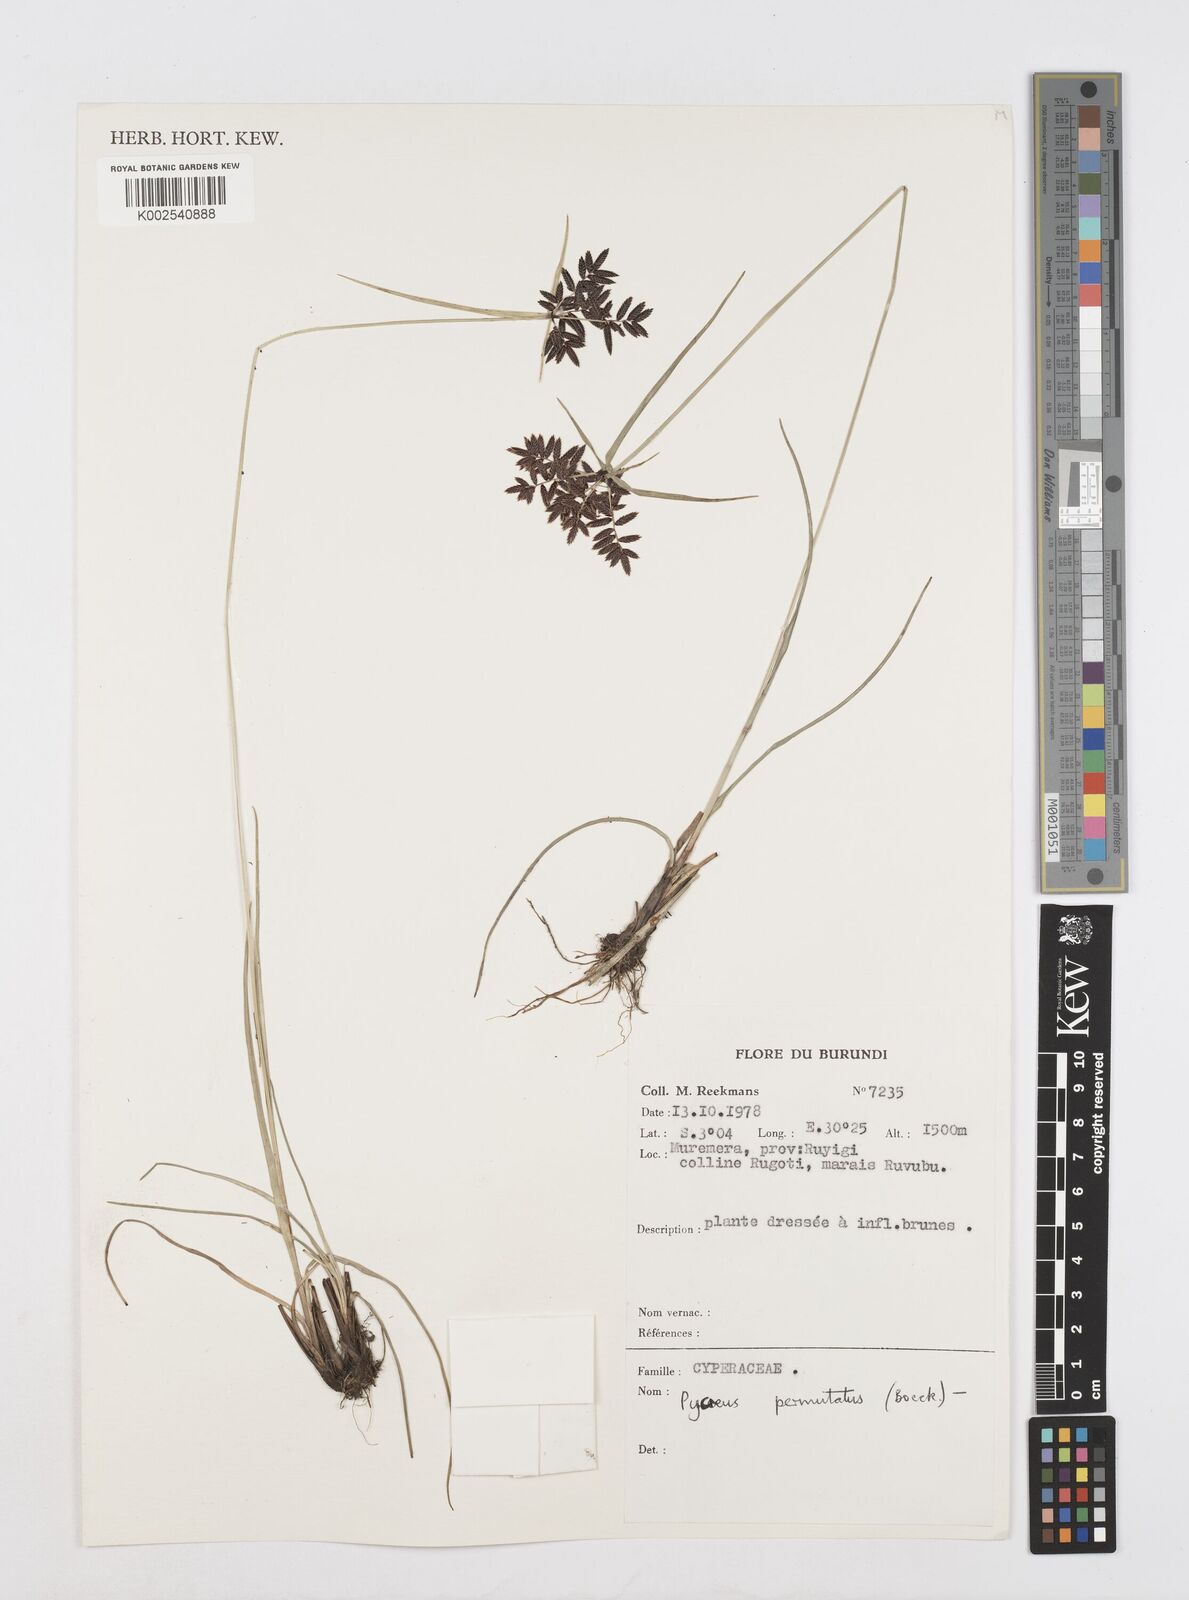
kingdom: Plantae
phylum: Tracheophyta
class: Liliopsida
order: Poales
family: Cyperaceae
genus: Cyperus
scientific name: Cyperus nigricans
